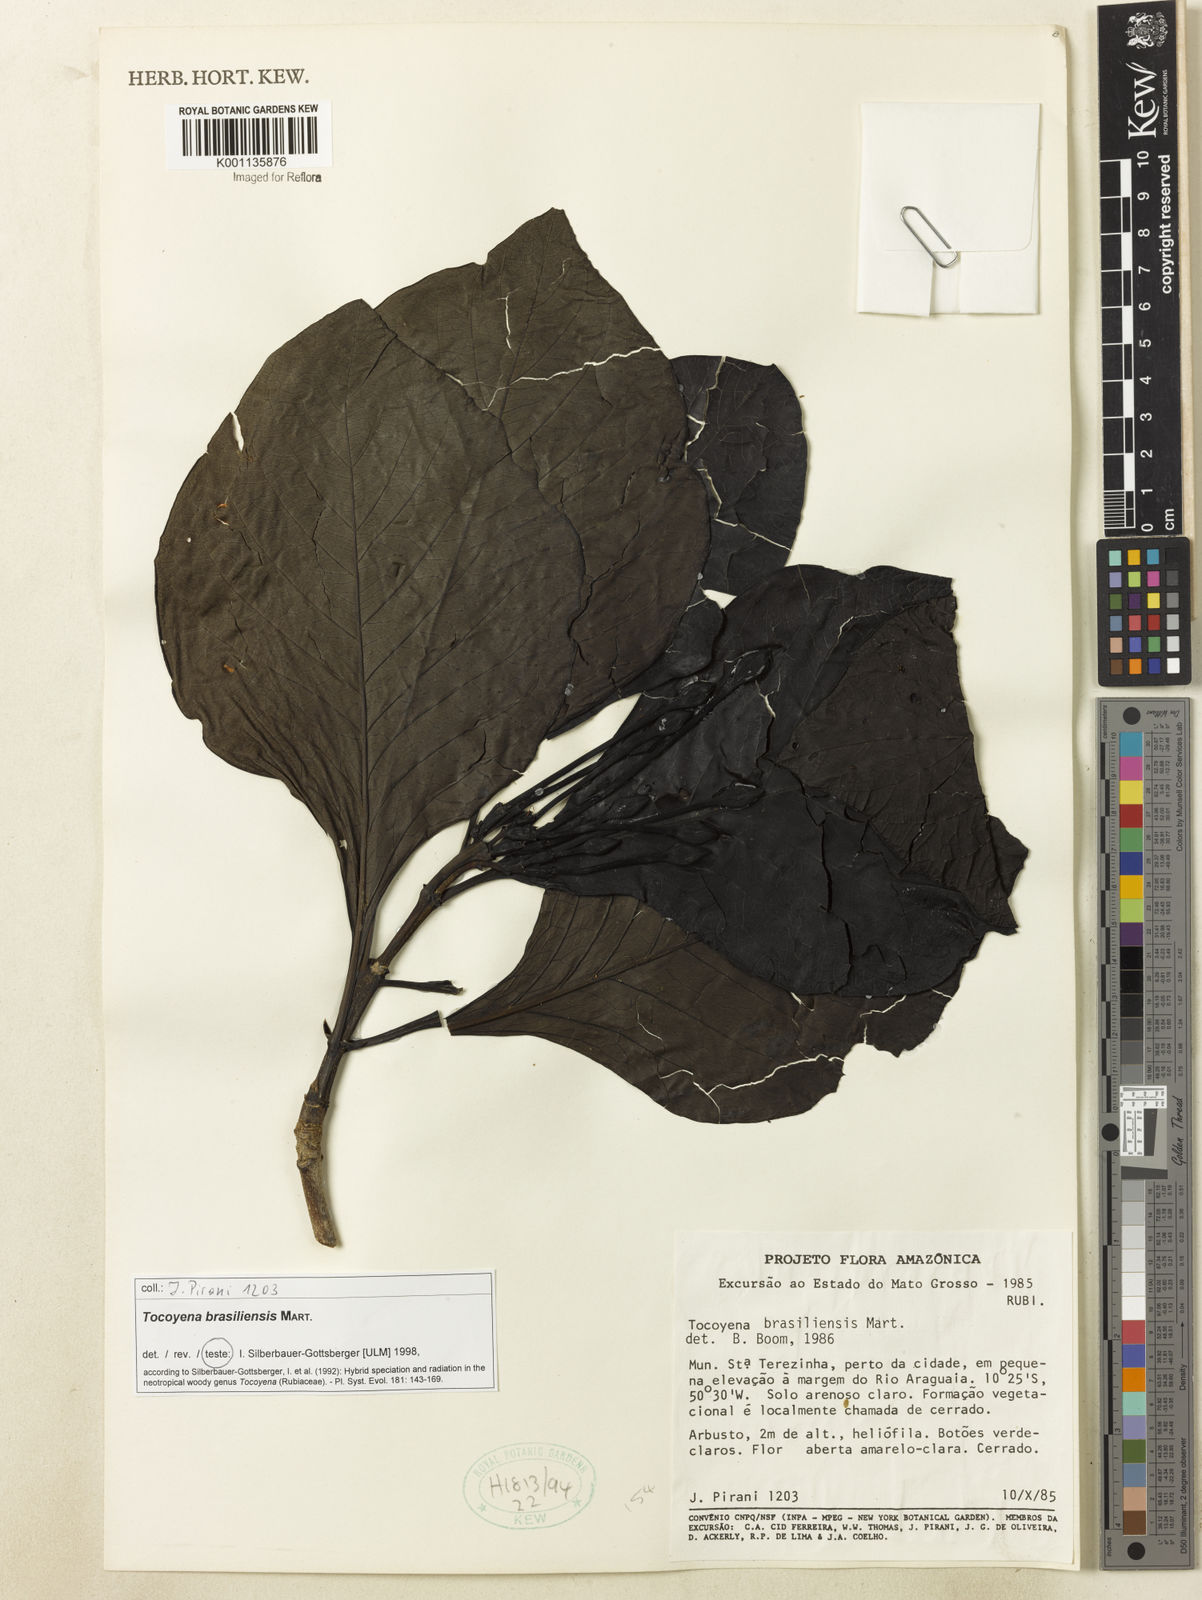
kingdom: Plantae
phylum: Tracheophyta
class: Magnoliopsida
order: Gentianales
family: Rubiaceae
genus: Tocoyena
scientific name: Tocoyena sprucei
